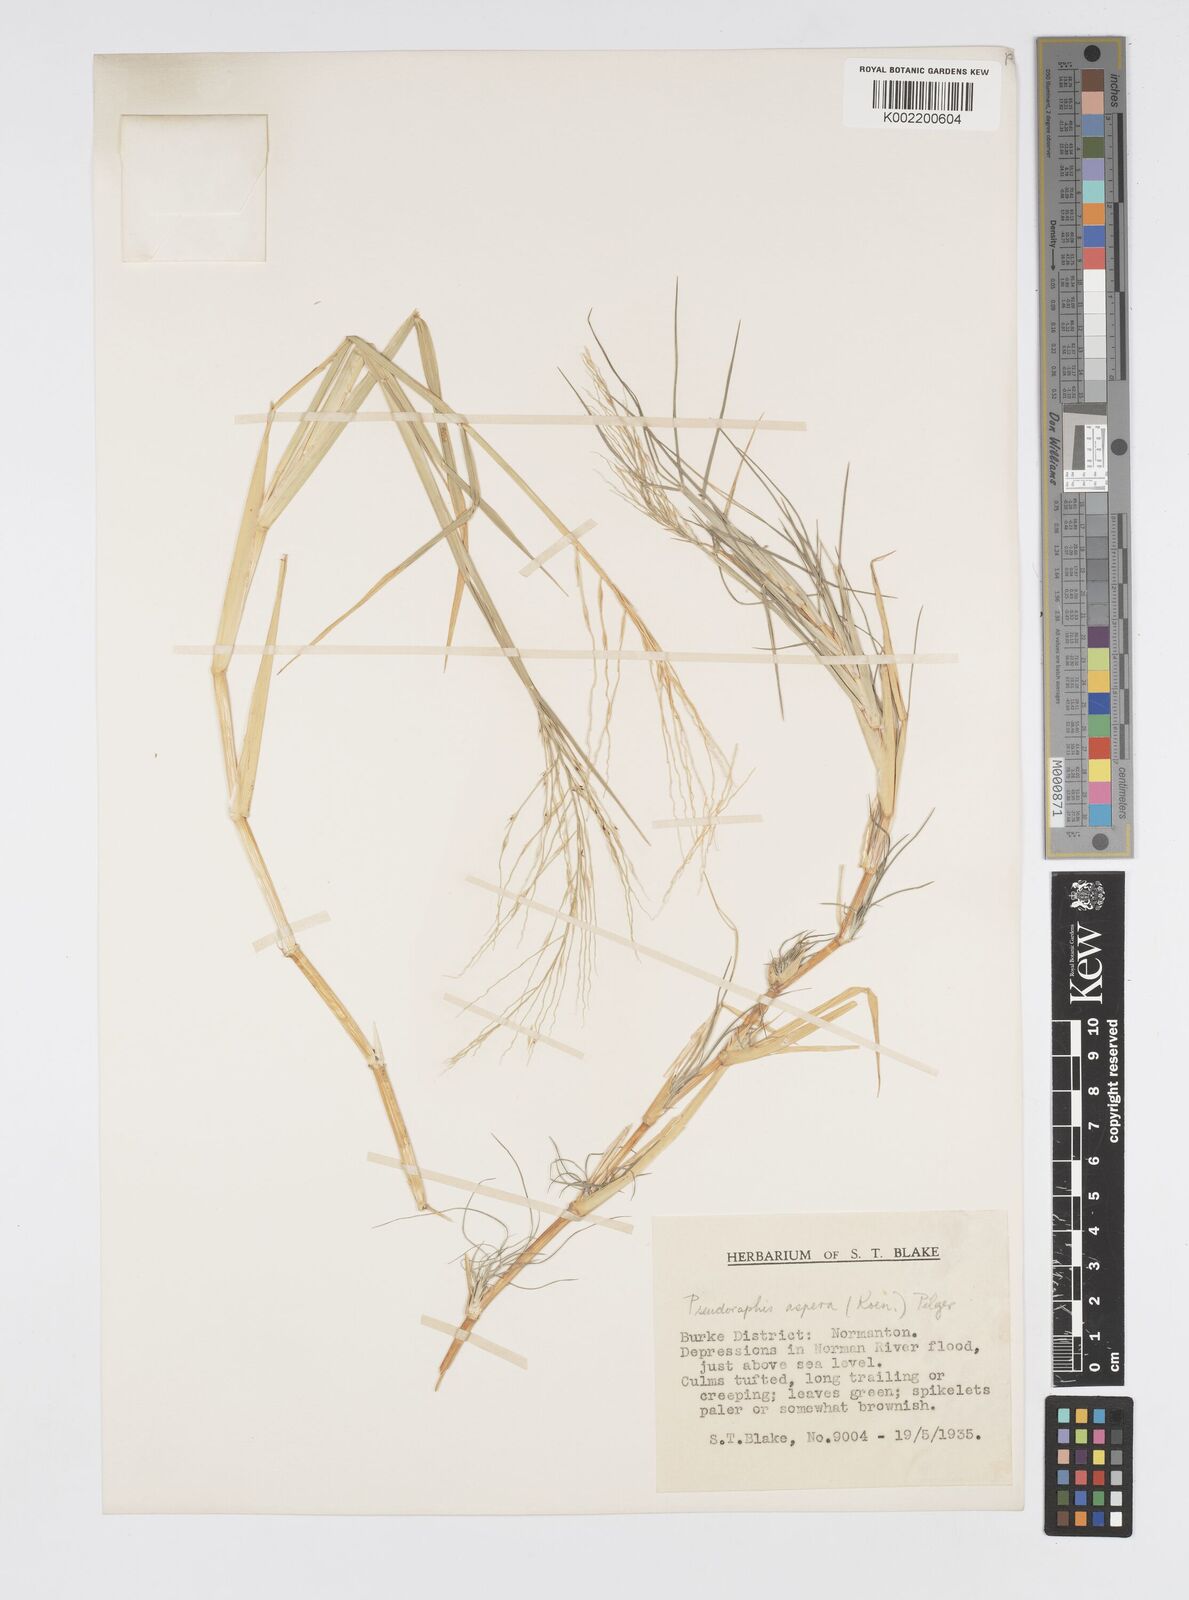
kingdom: Plantae
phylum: Tracheophyta
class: Liliopsida
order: Poales
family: Poaceae
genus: Pseudoraphis
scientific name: Pseudoraphis spinescens
